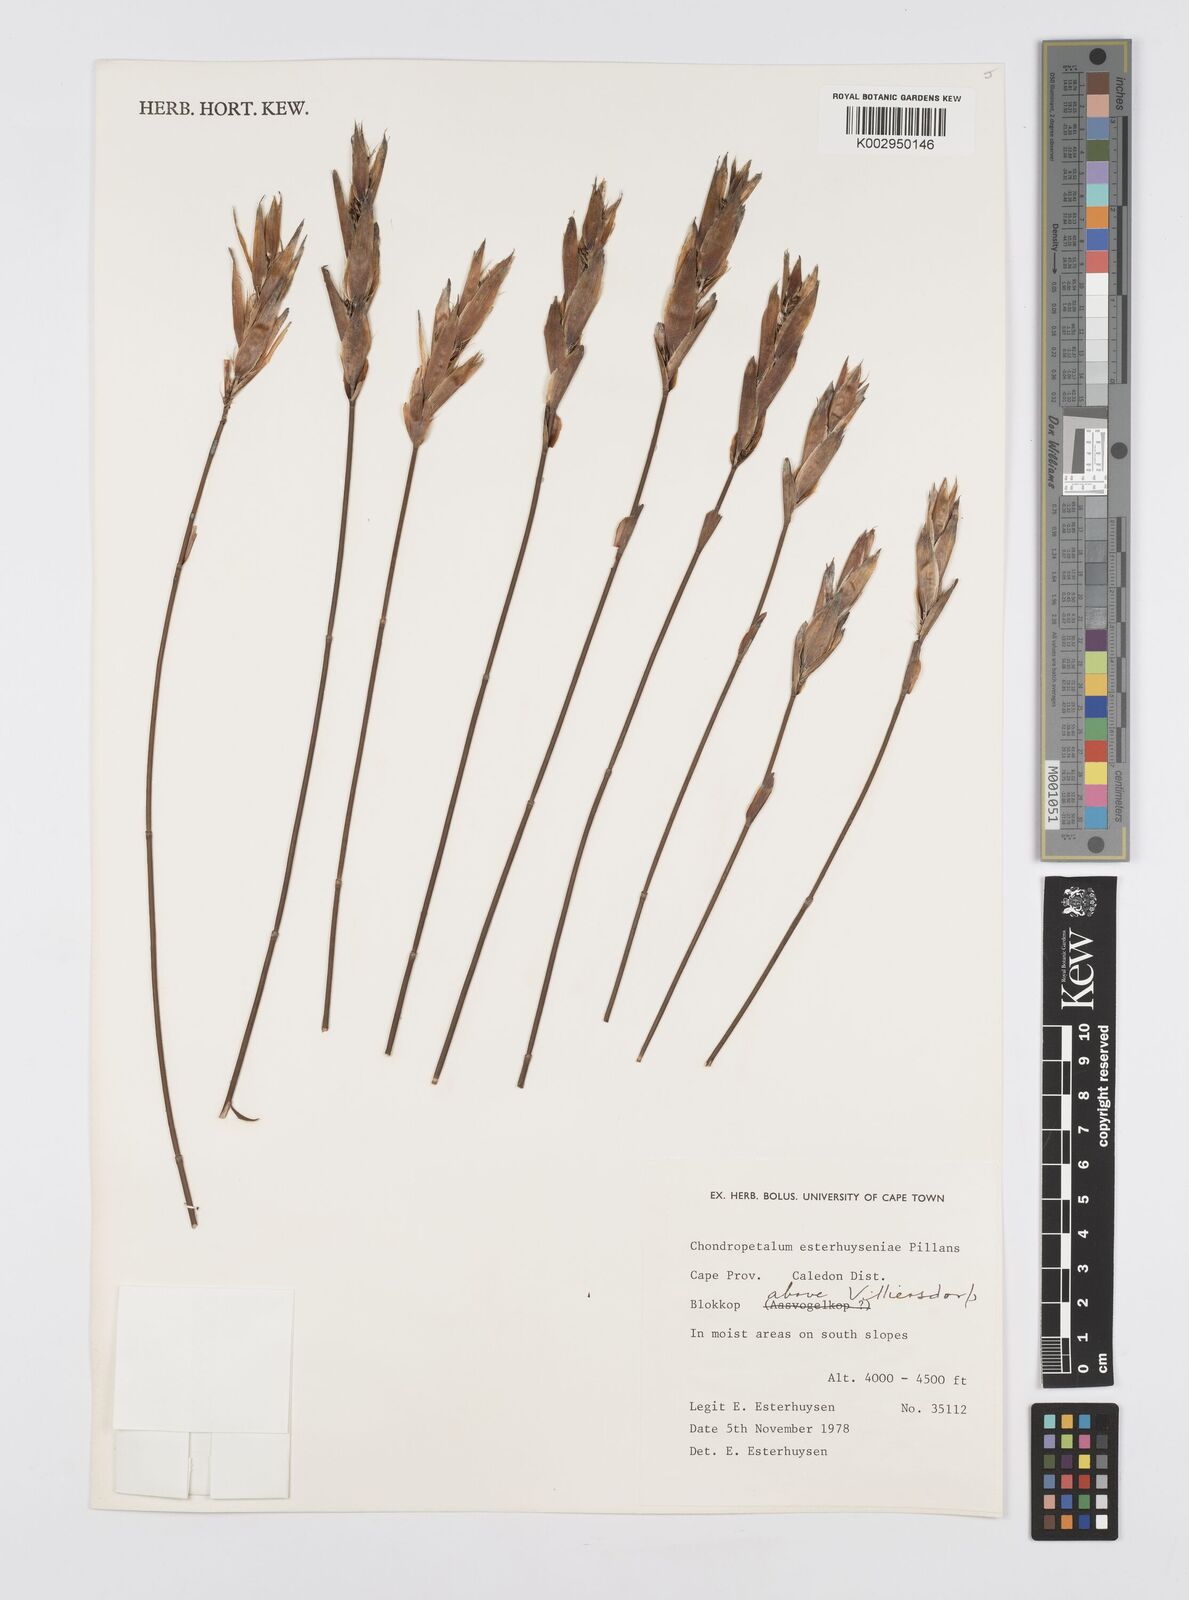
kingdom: Plantae
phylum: Tracheophyta
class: Liliopsida
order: Poales
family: Restionaceae
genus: Askidiosperma
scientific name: Askidiosperma esterhuyseniae
